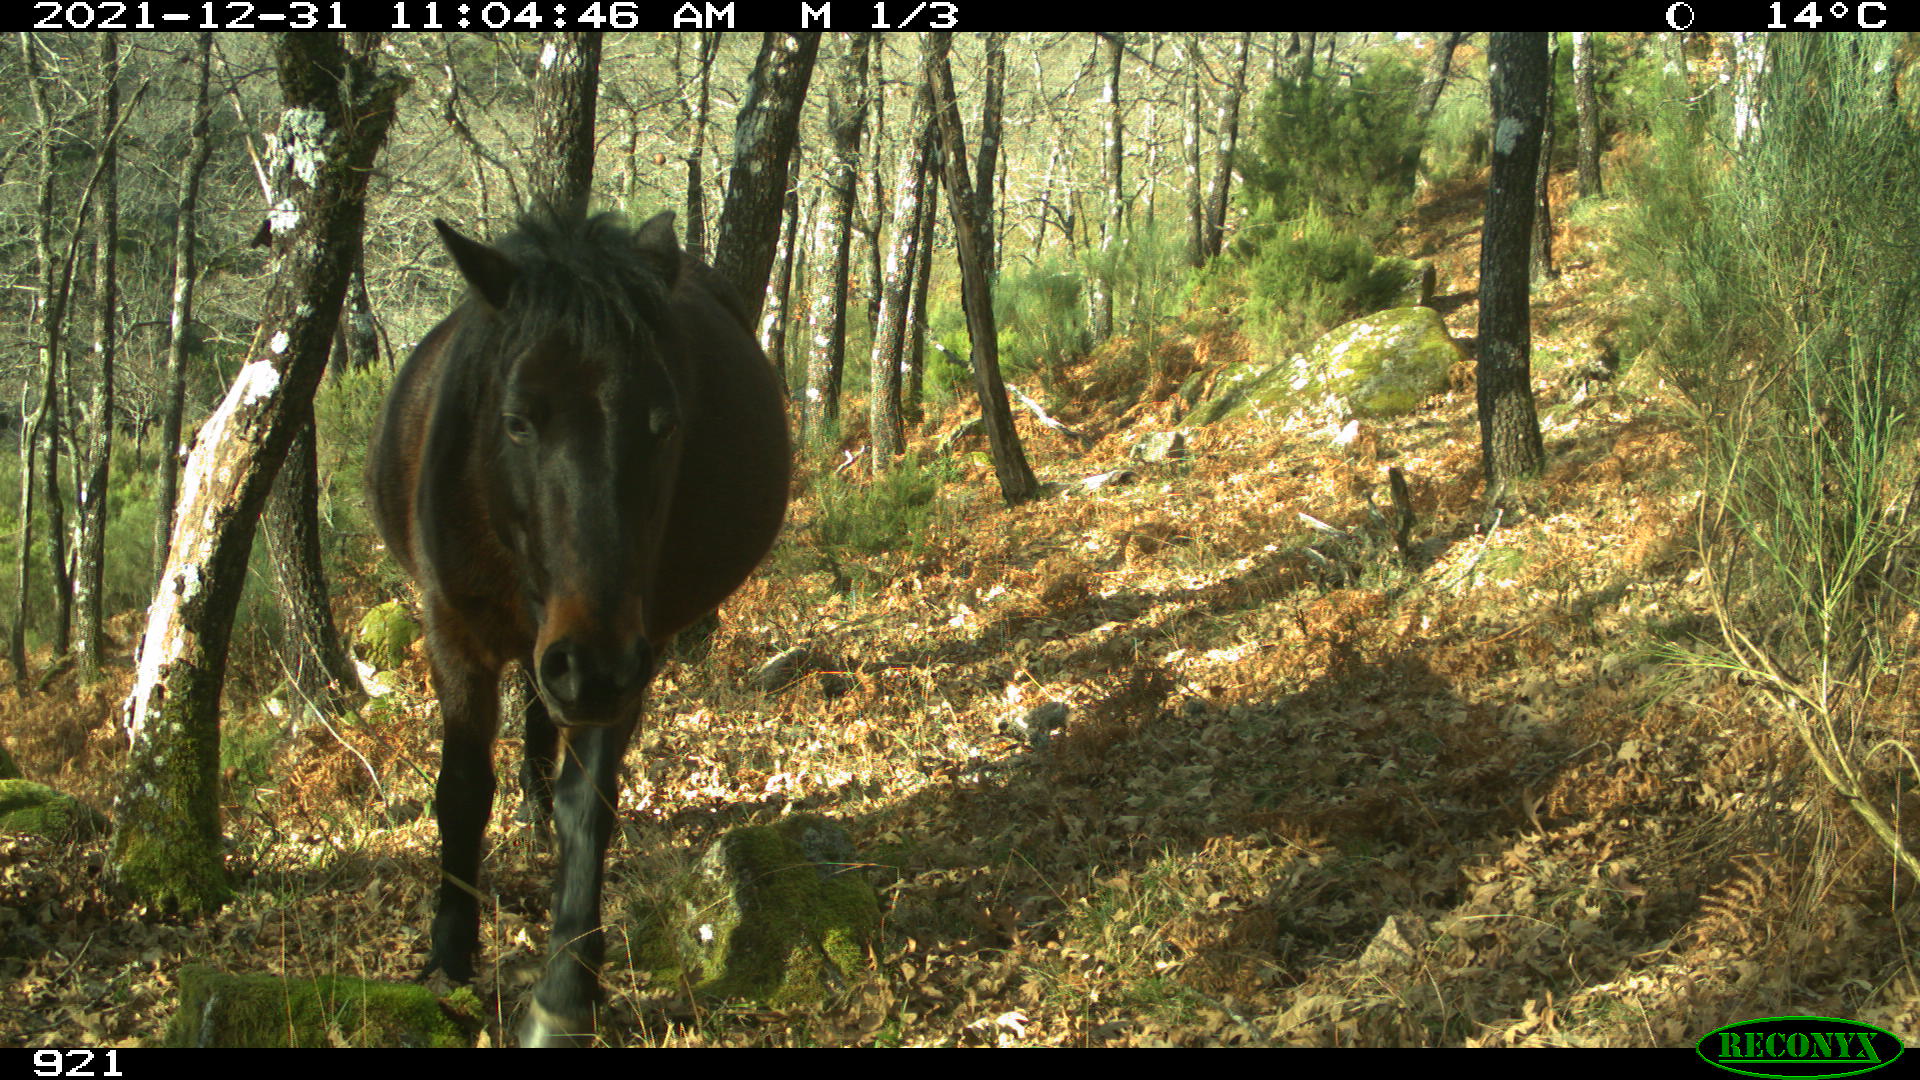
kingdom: Animalia
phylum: Chordata
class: Mammalia
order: Perissodactyla
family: Equidae
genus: Equus
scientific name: Equus caballus
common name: Horse
